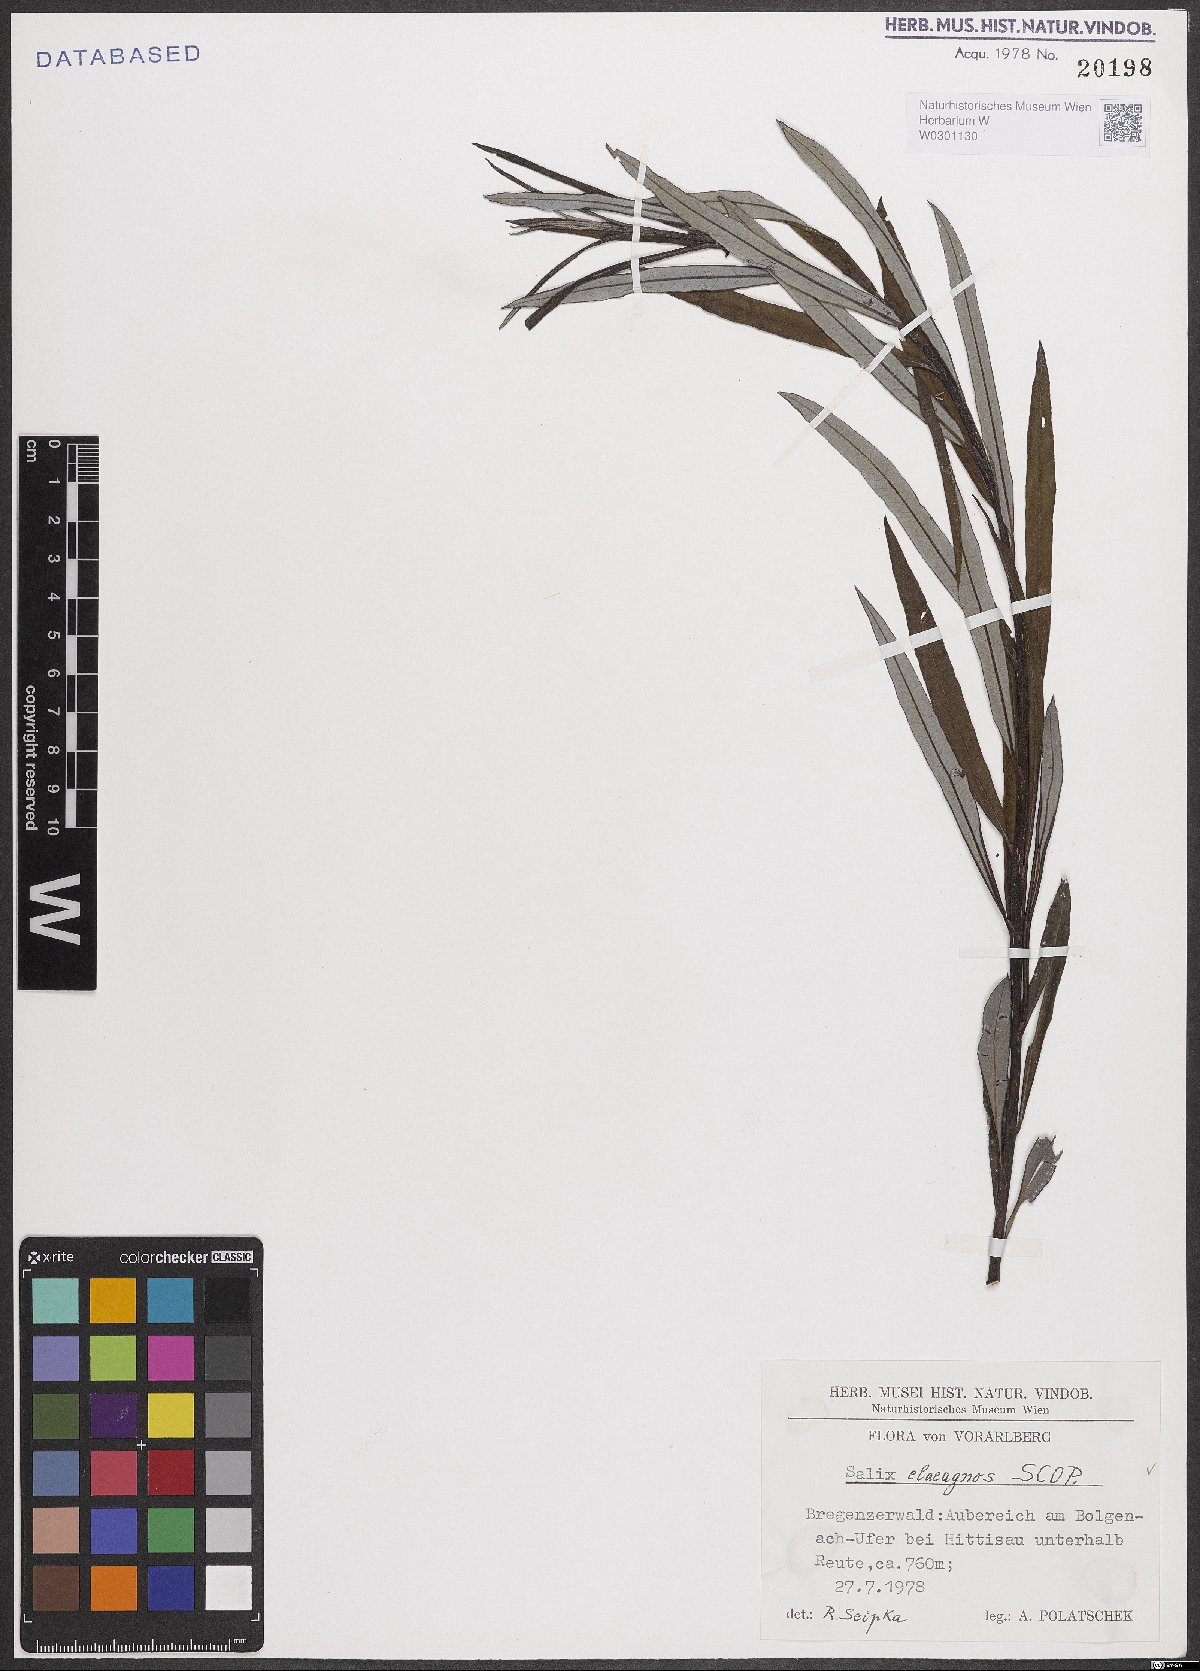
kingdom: Plantae
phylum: Tracheophyta
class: Magnoliopsida
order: Malpighiales
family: Salicaceae
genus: Salix
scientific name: Salix eleagnos
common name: Elaeagnus willow
